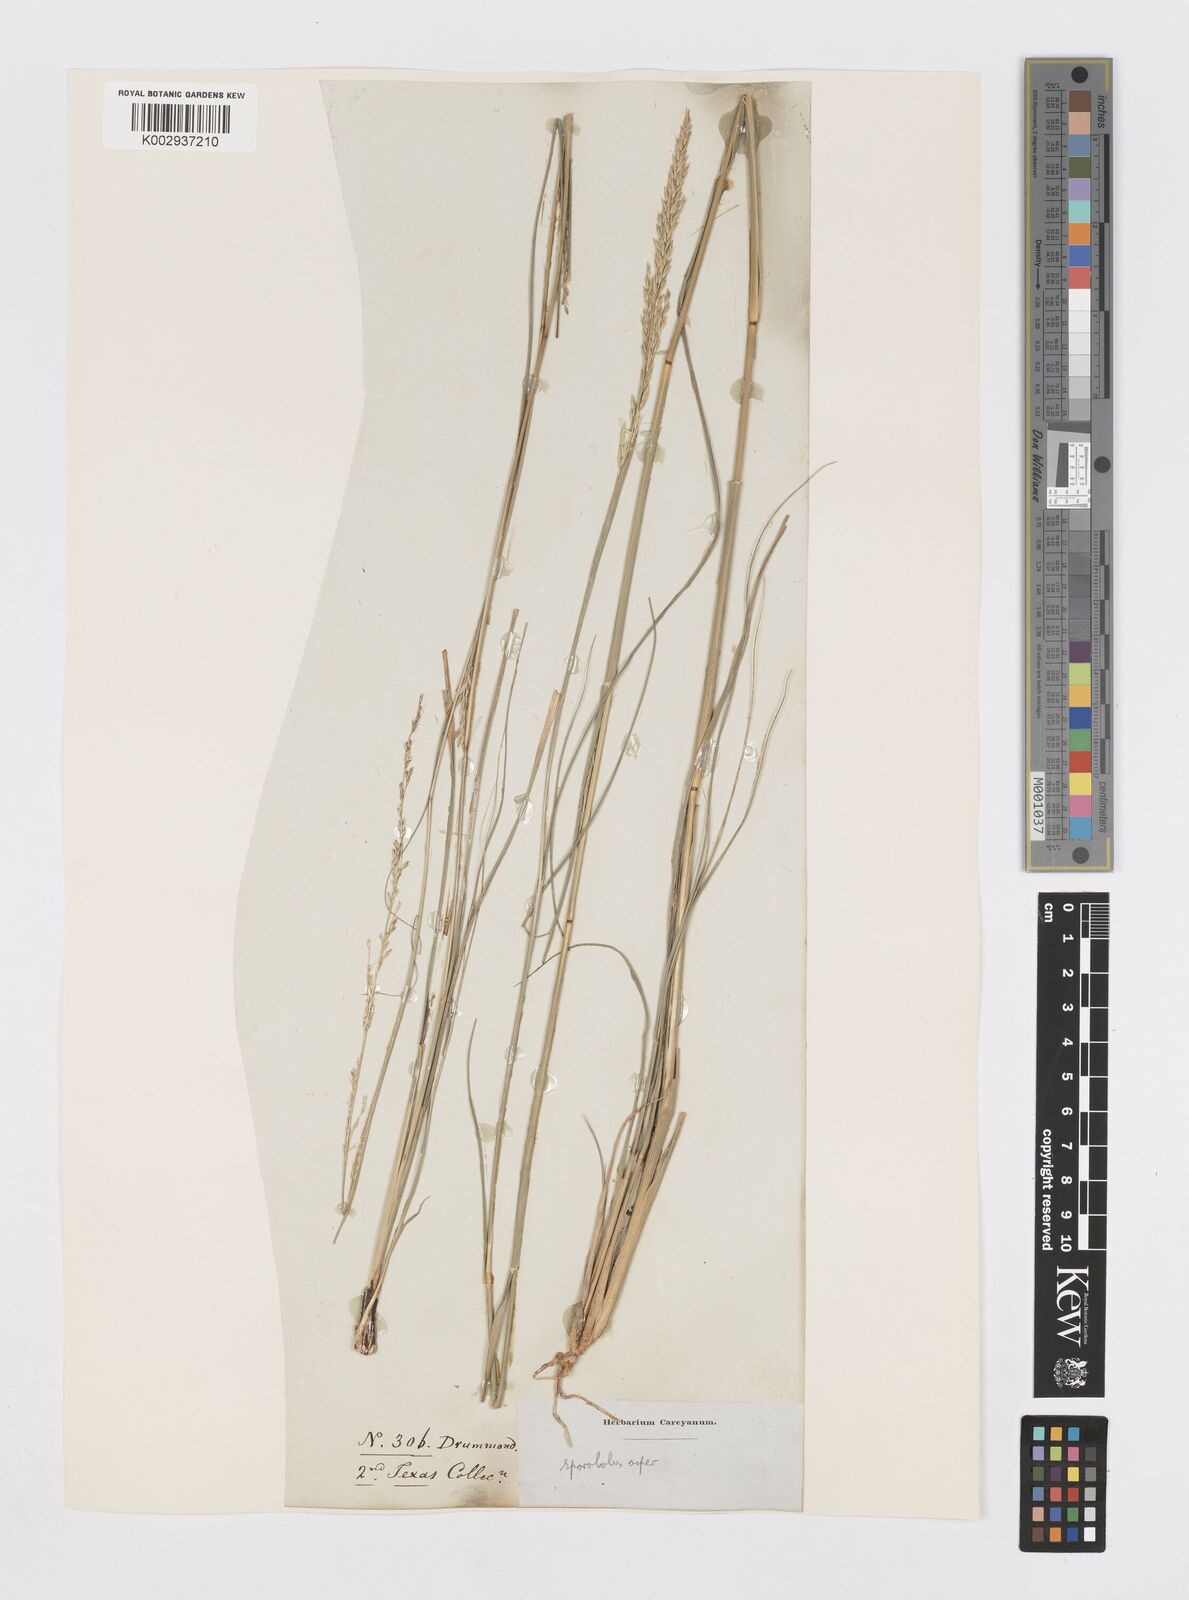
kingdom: Plantae
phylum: Tracheophyta
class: Liliopsida
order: Poales
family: Poaceae
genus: Sporobolus
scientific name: Sporobolus compositus
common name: Rough dropseed
